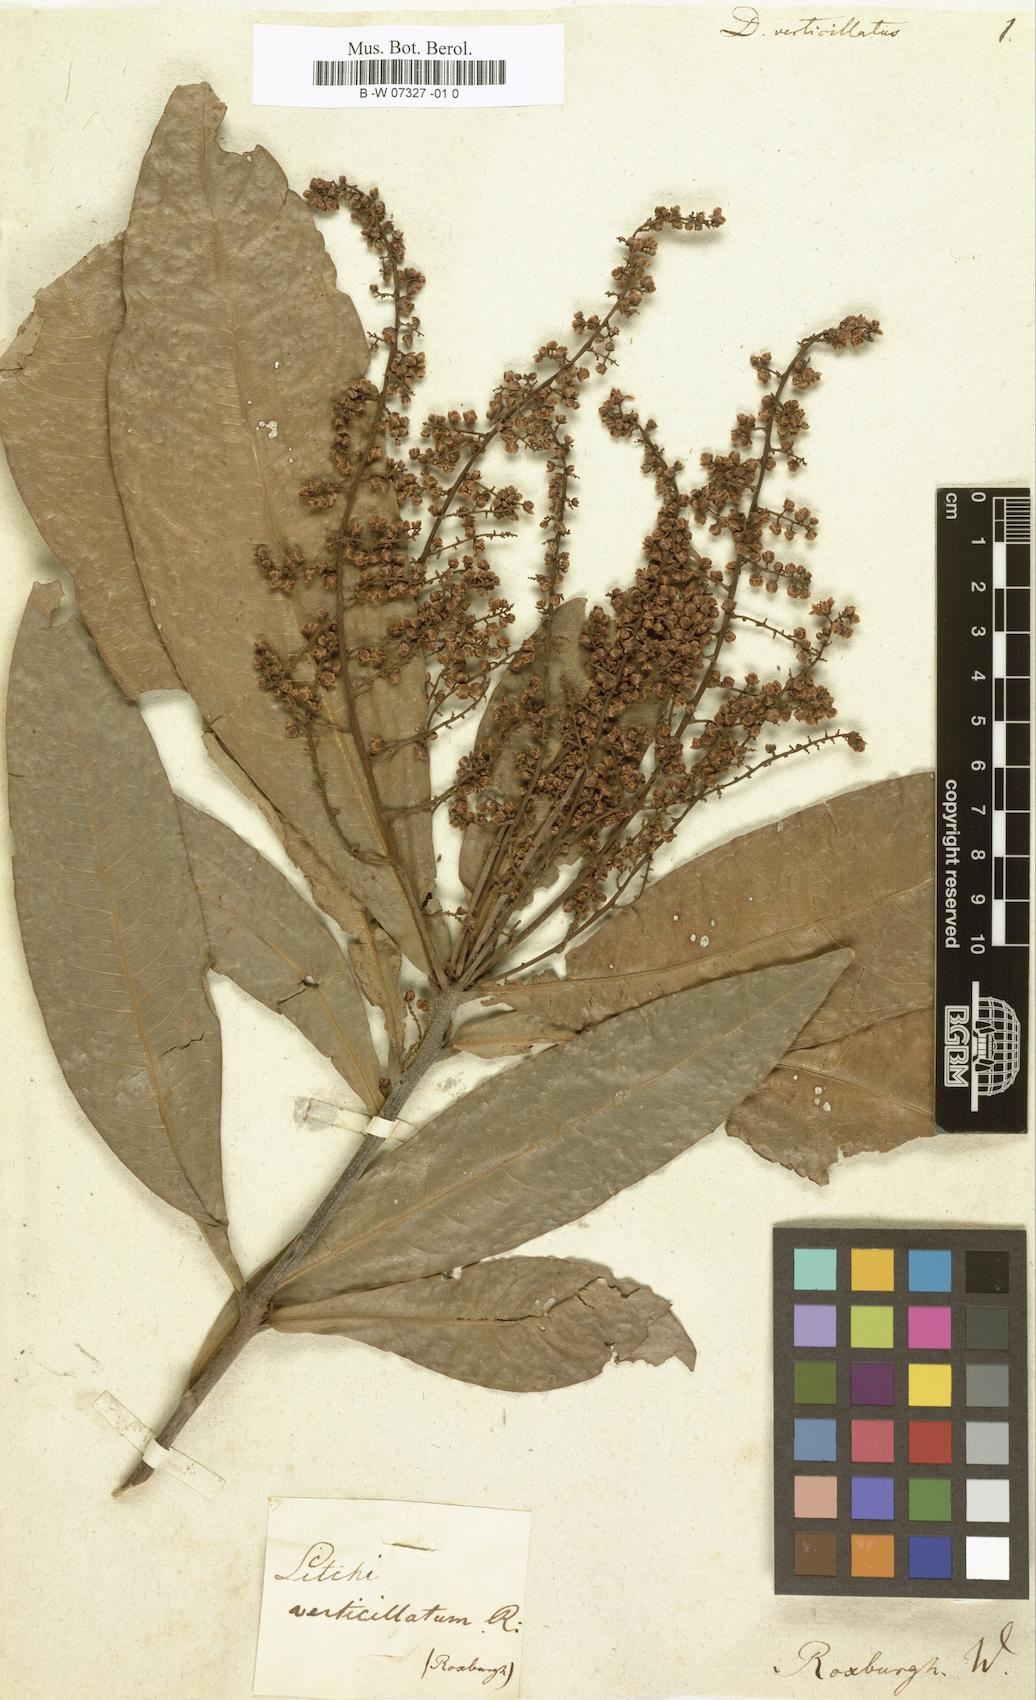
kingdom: Plantae
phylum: Tracheophyta
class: Magnoliopsida
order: Sapindales
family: Sapindaceae
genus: Lepisanthes
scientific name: Lepisanthes senegalensis
